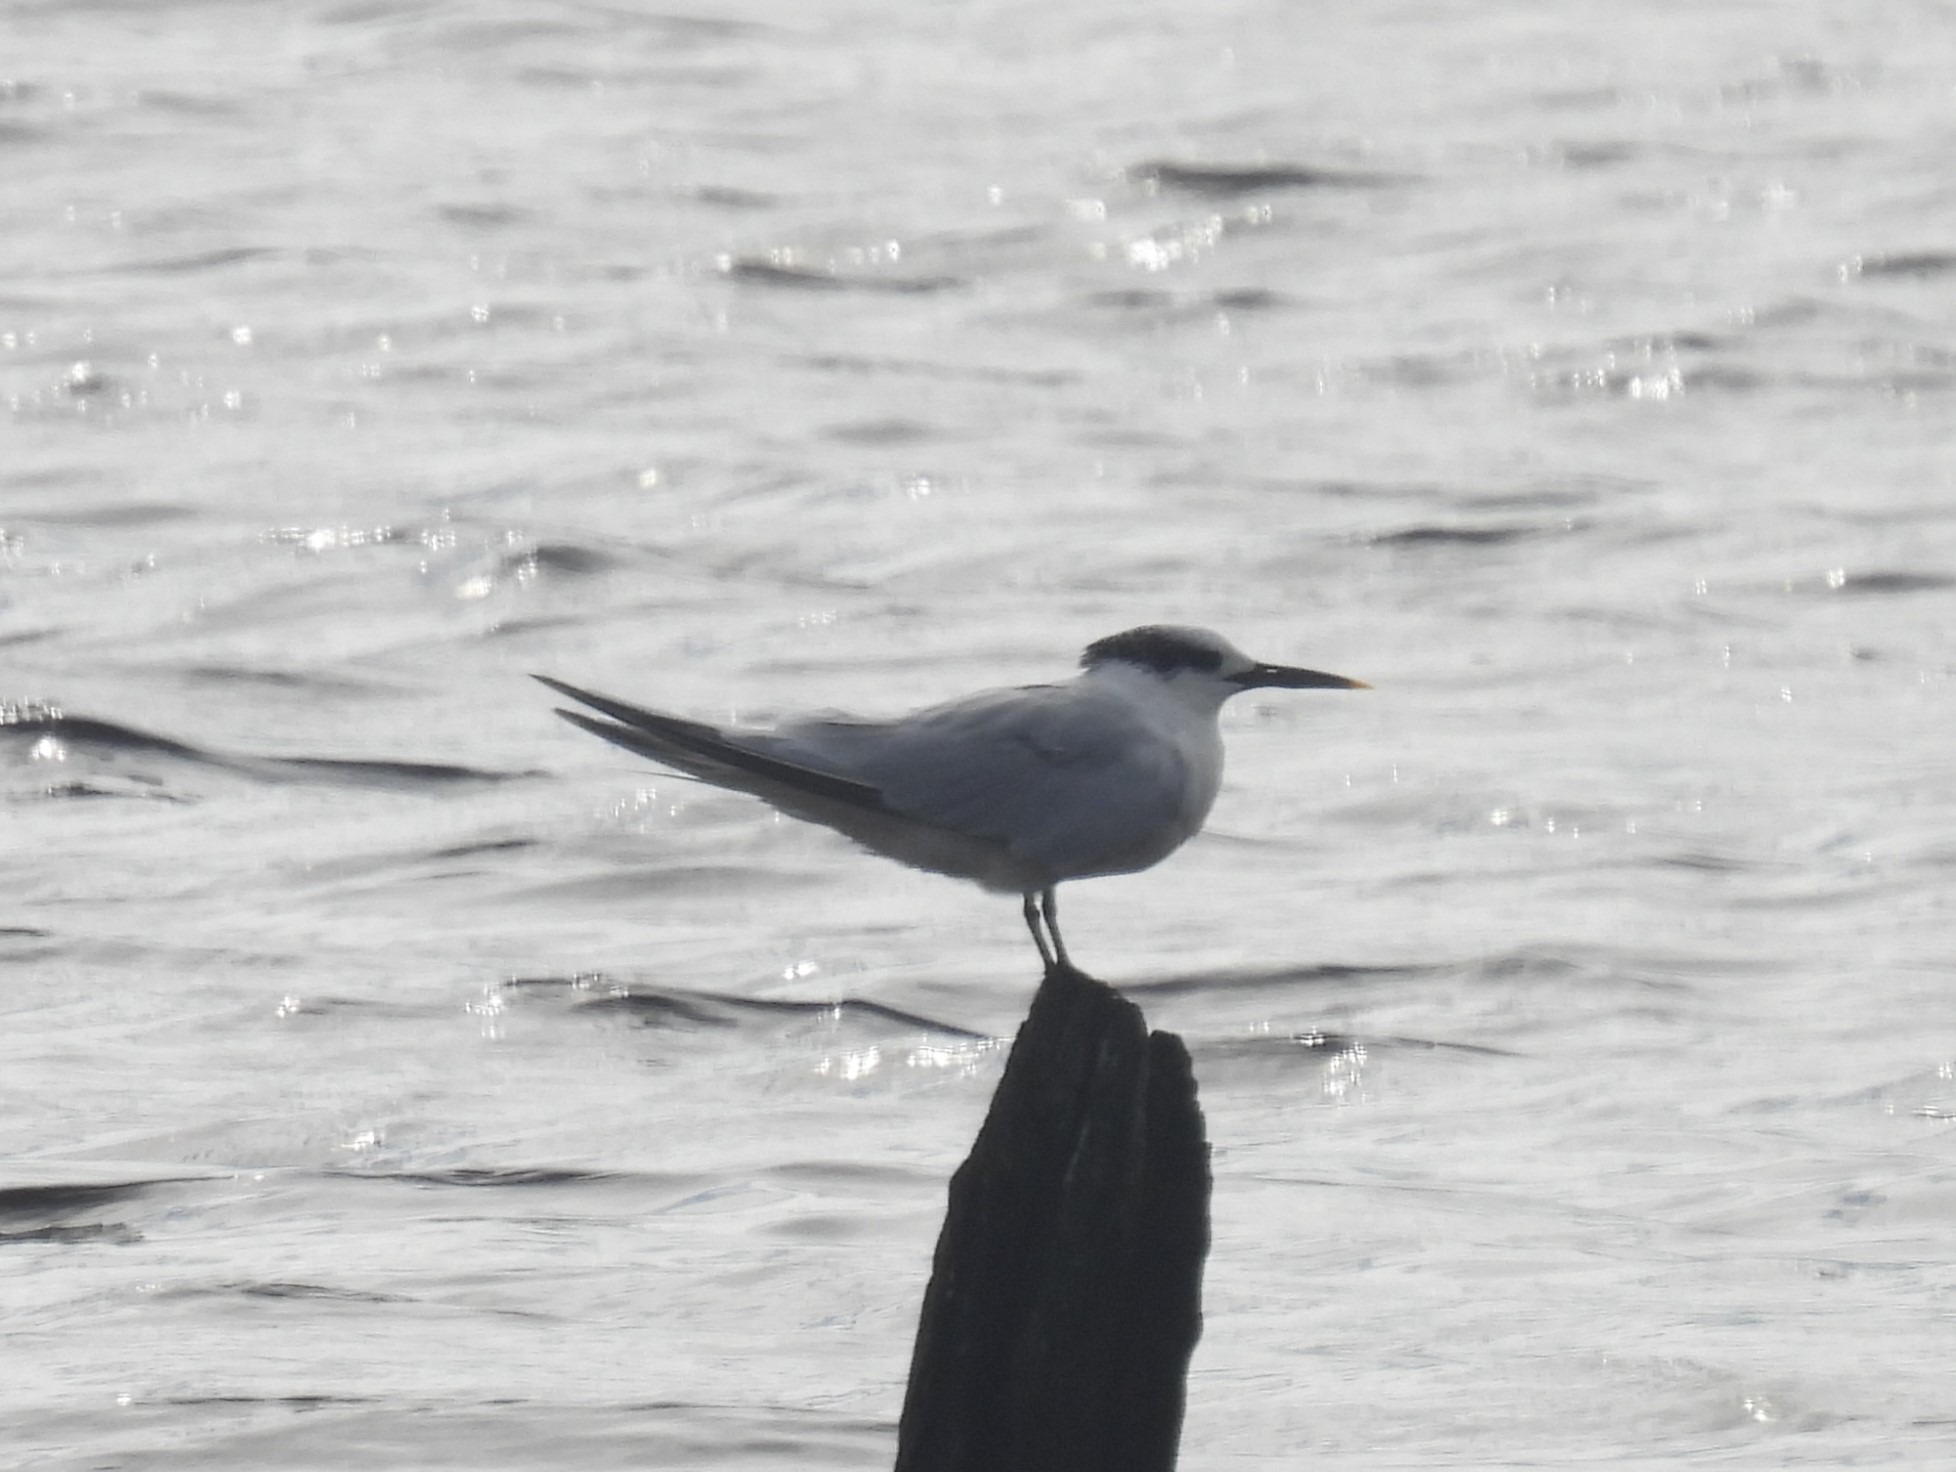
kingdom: Animalia
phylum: Chordata
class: Aves
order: Charadriiformes
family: Laridae
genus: Thalasseus
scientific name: Thalasseus sandvicensis
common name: Splitterne
